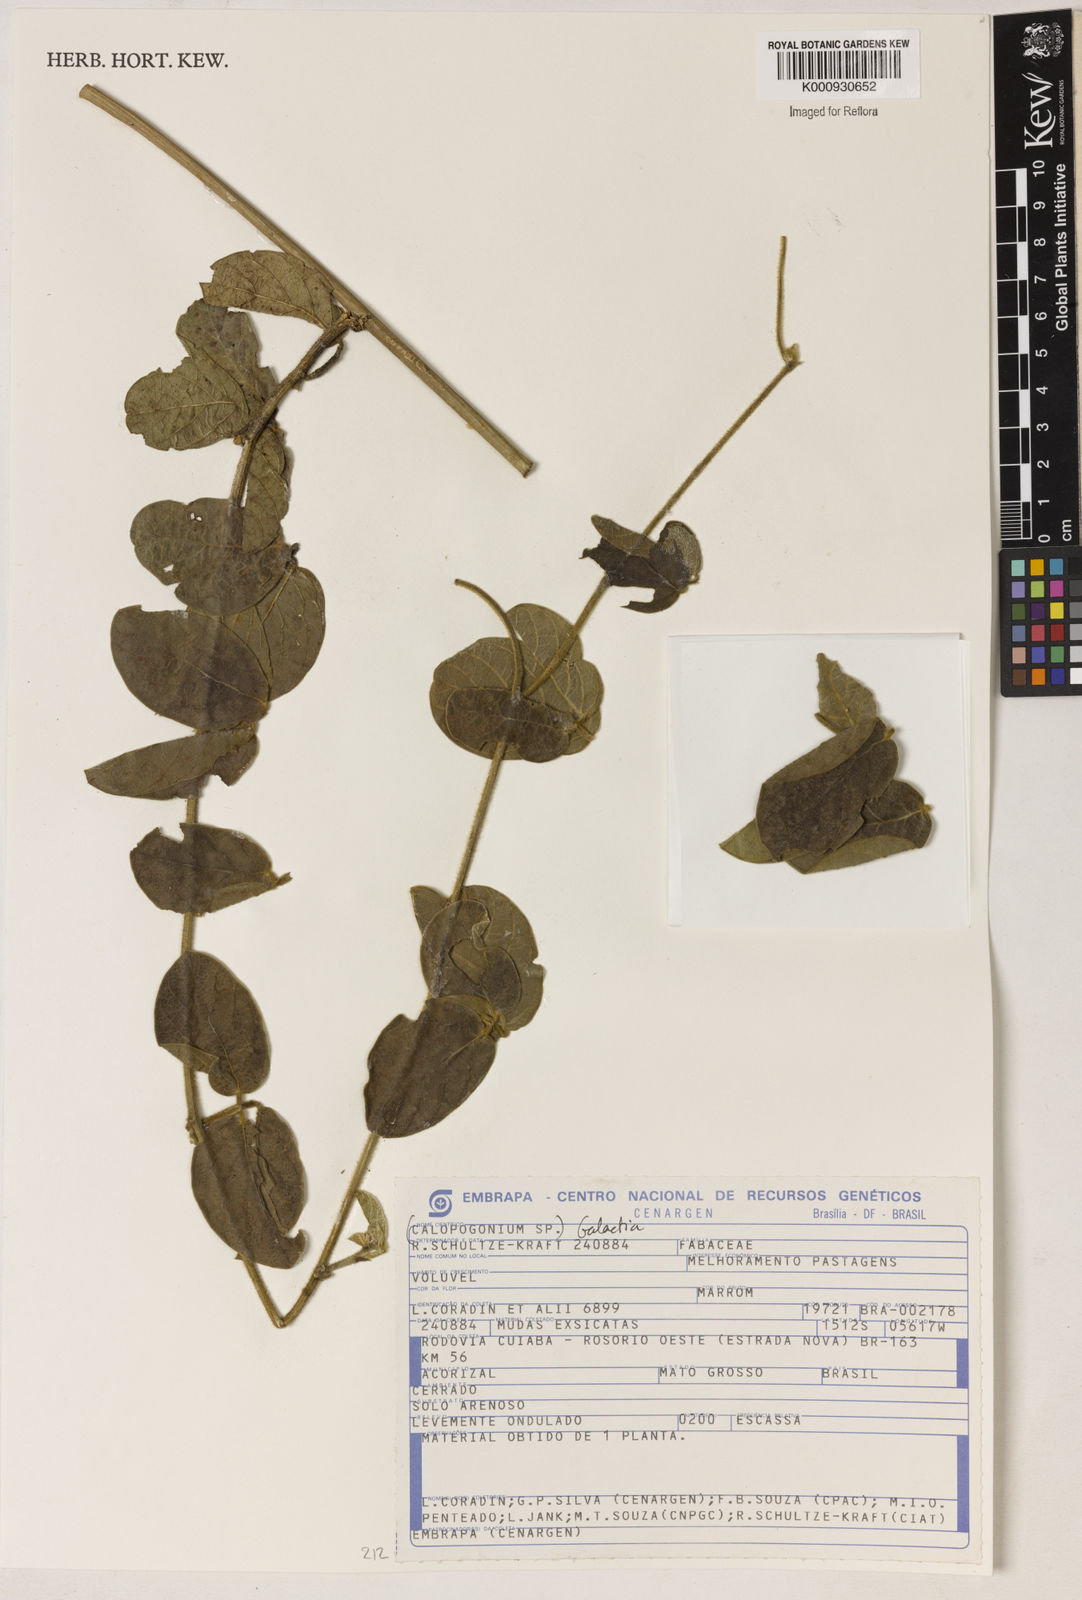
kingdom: Plantae
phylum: Tracheophyta
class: Magnoliopsida
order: Fabales
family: Fabaceae
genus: Galactia
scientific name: Galactia
